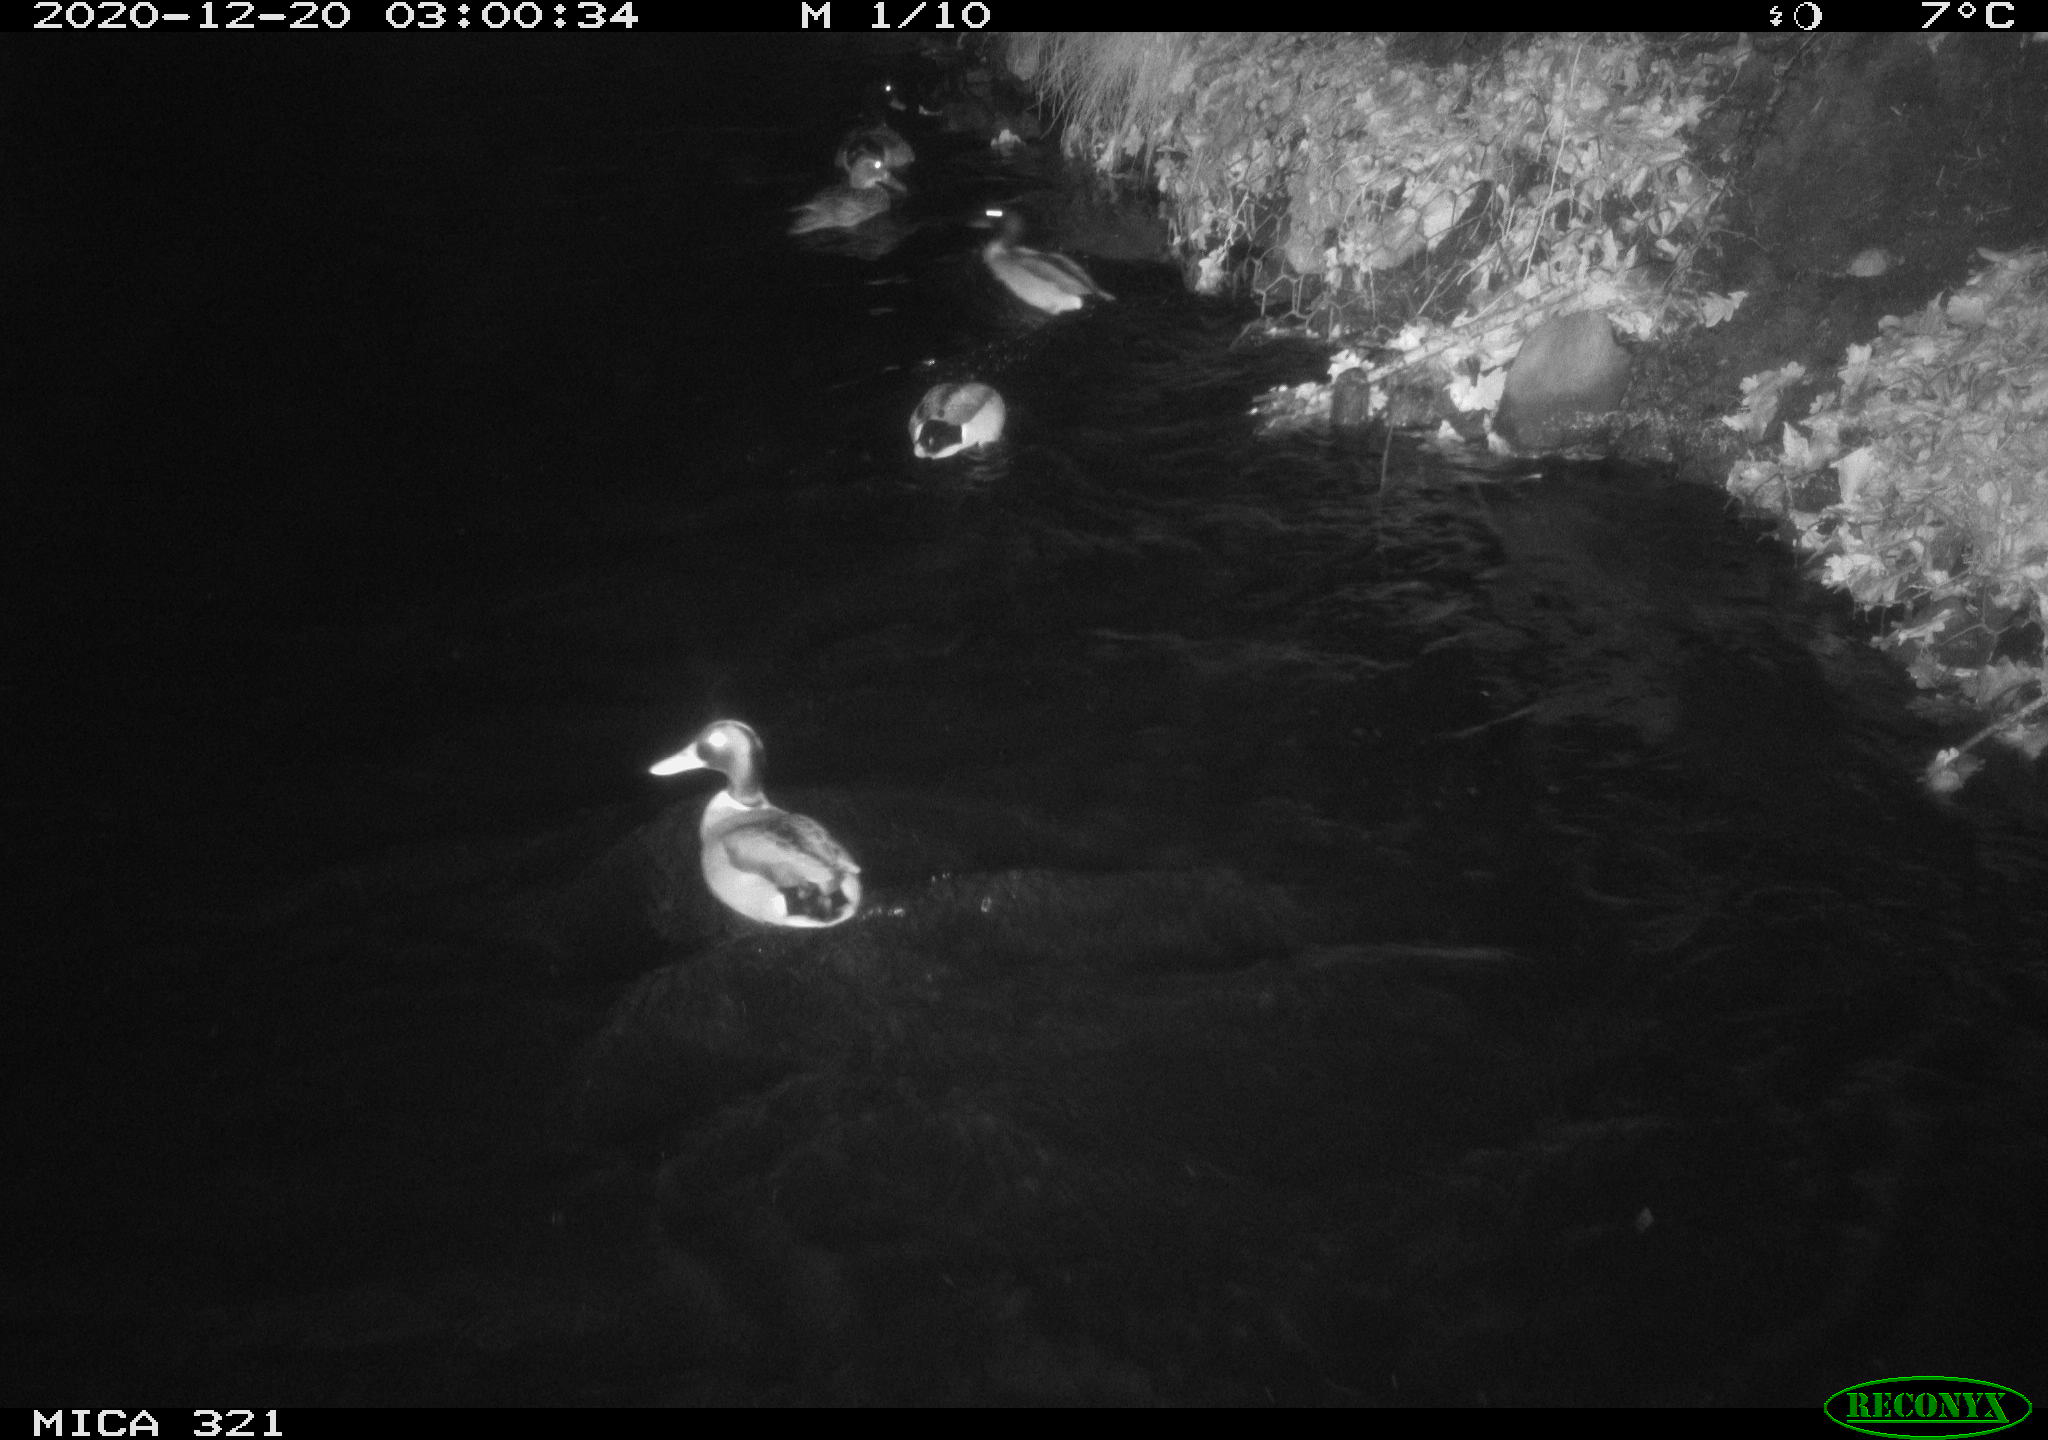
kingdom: Animalia
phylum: Chordata
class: Aves
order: Anseriformes
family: Anatidae
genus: Anas
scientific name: Anas platyrhynchos
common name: Mallard
